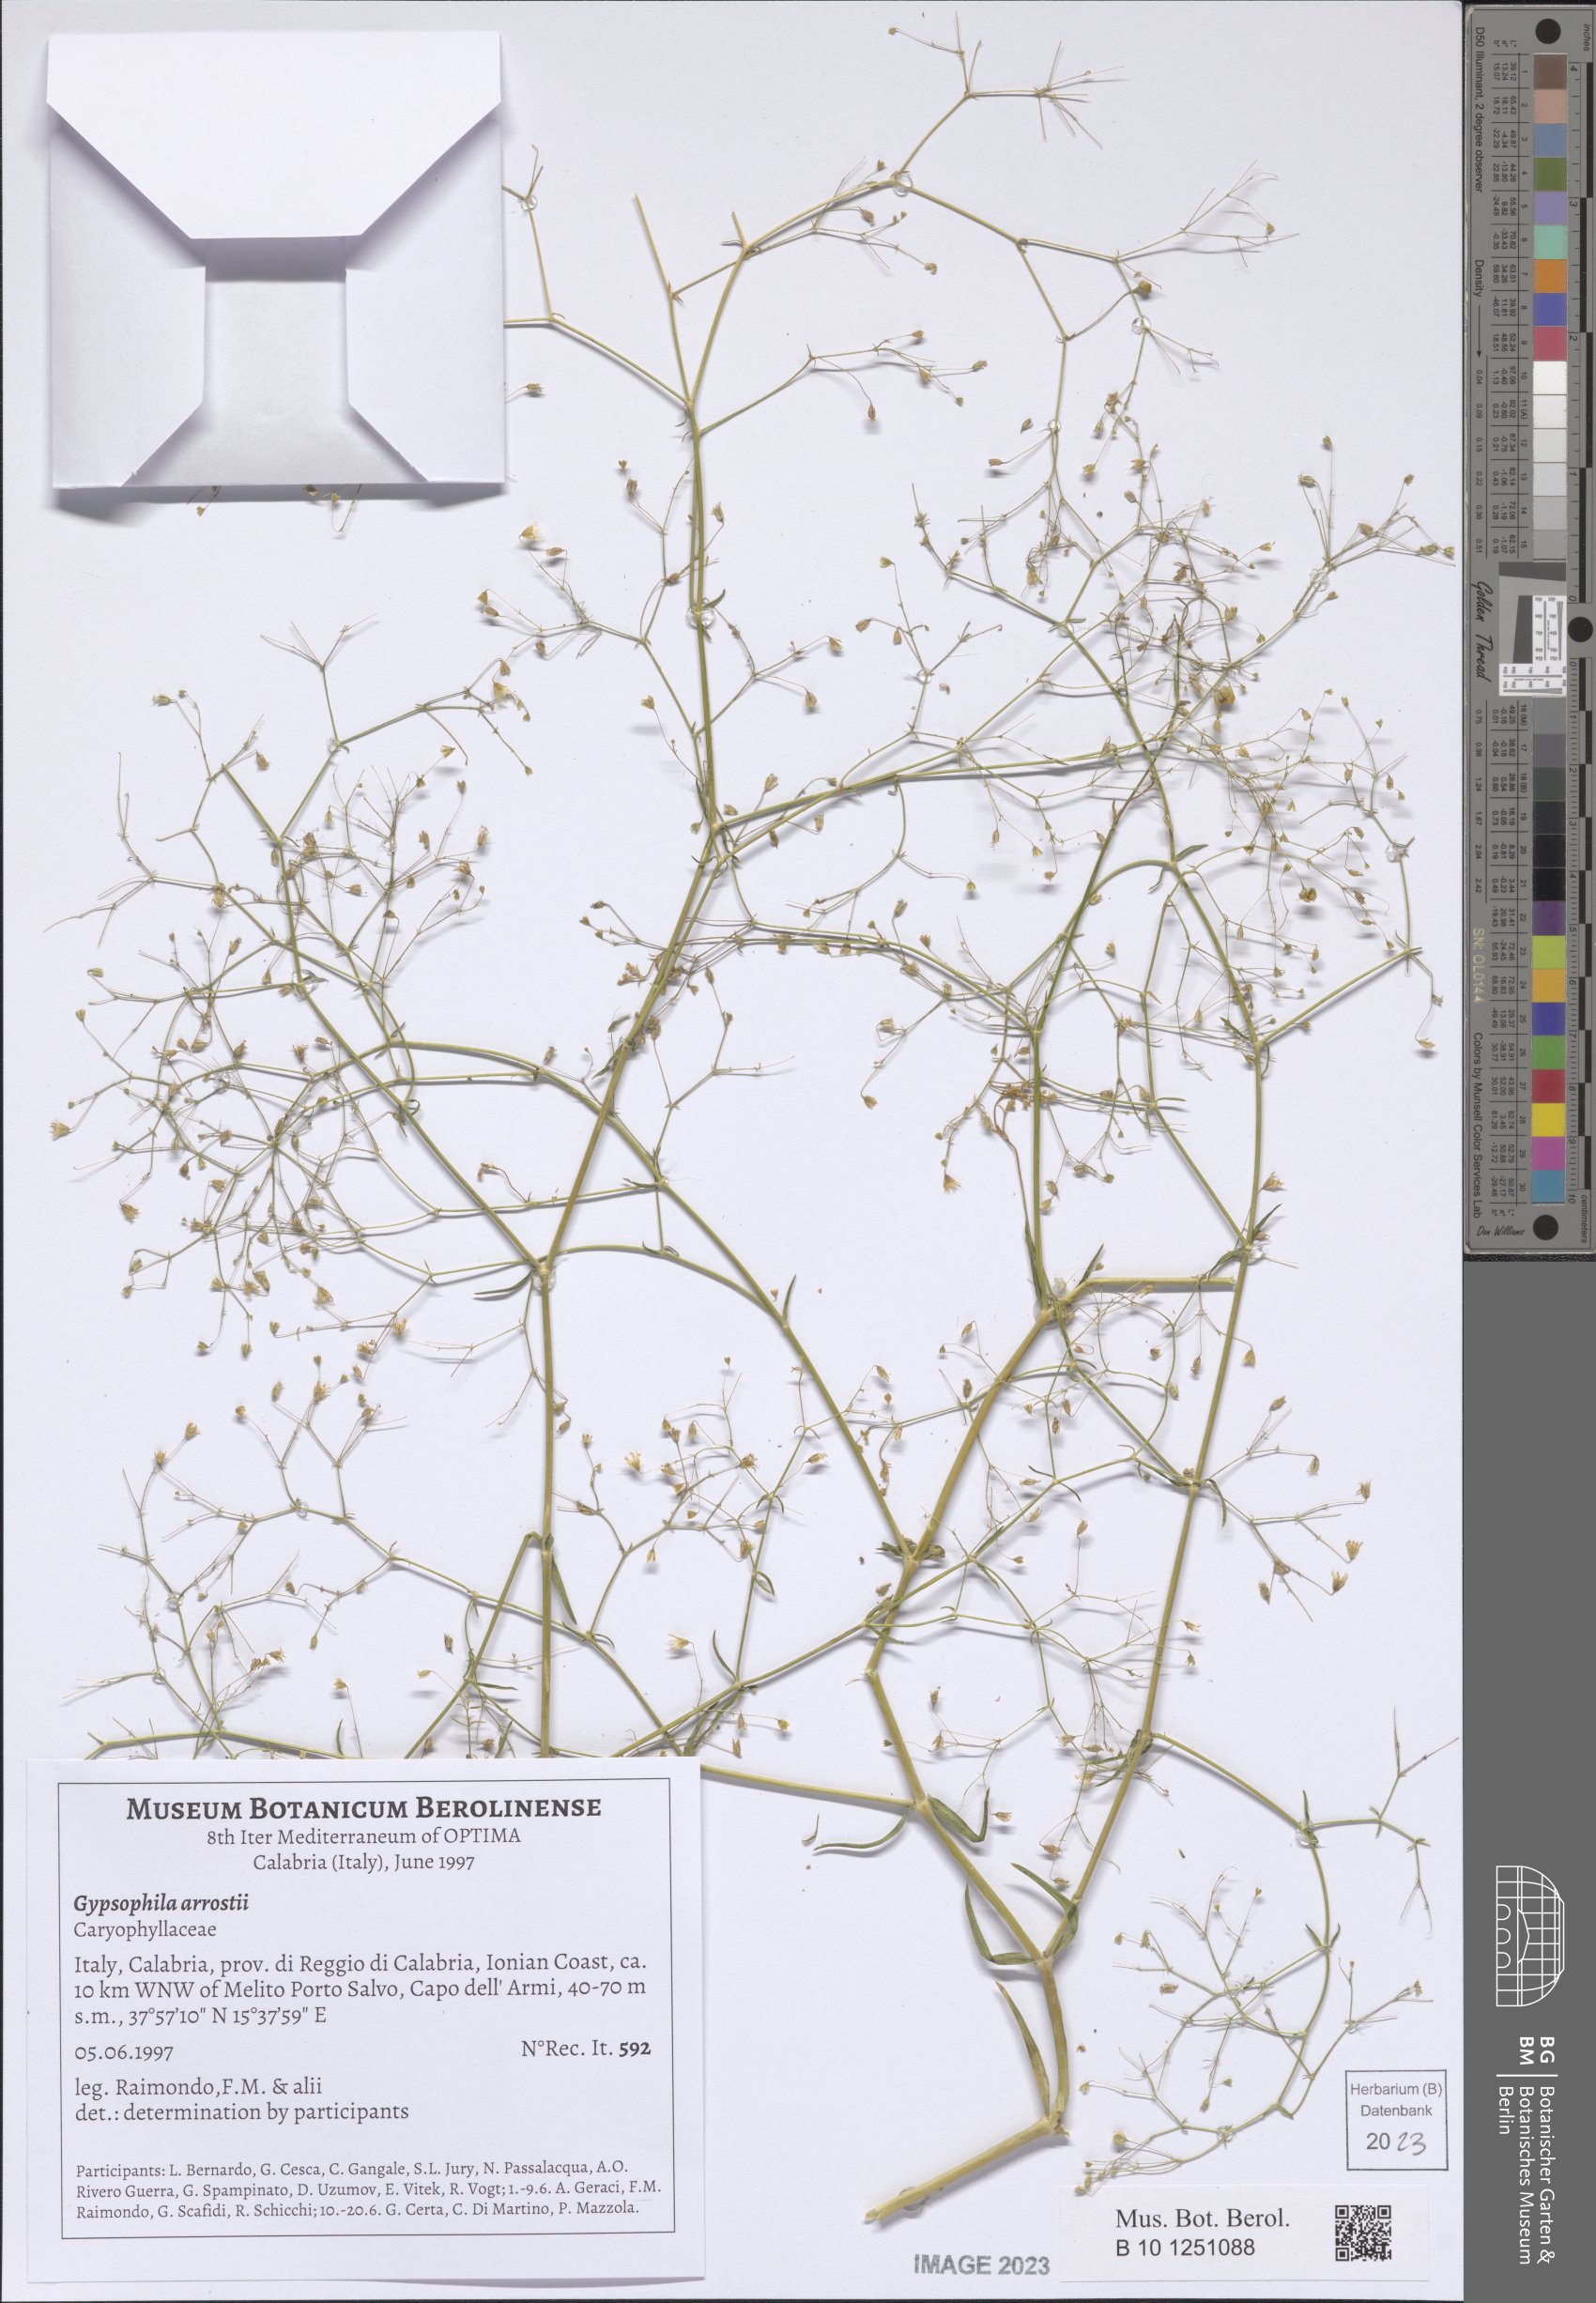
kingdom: Plantae
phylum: Tracheophyta
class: Magnoliopsida
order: Caryophyllales
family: Caryophyllaceae
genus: Gypsophila
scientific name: Gypsophila arrostii
